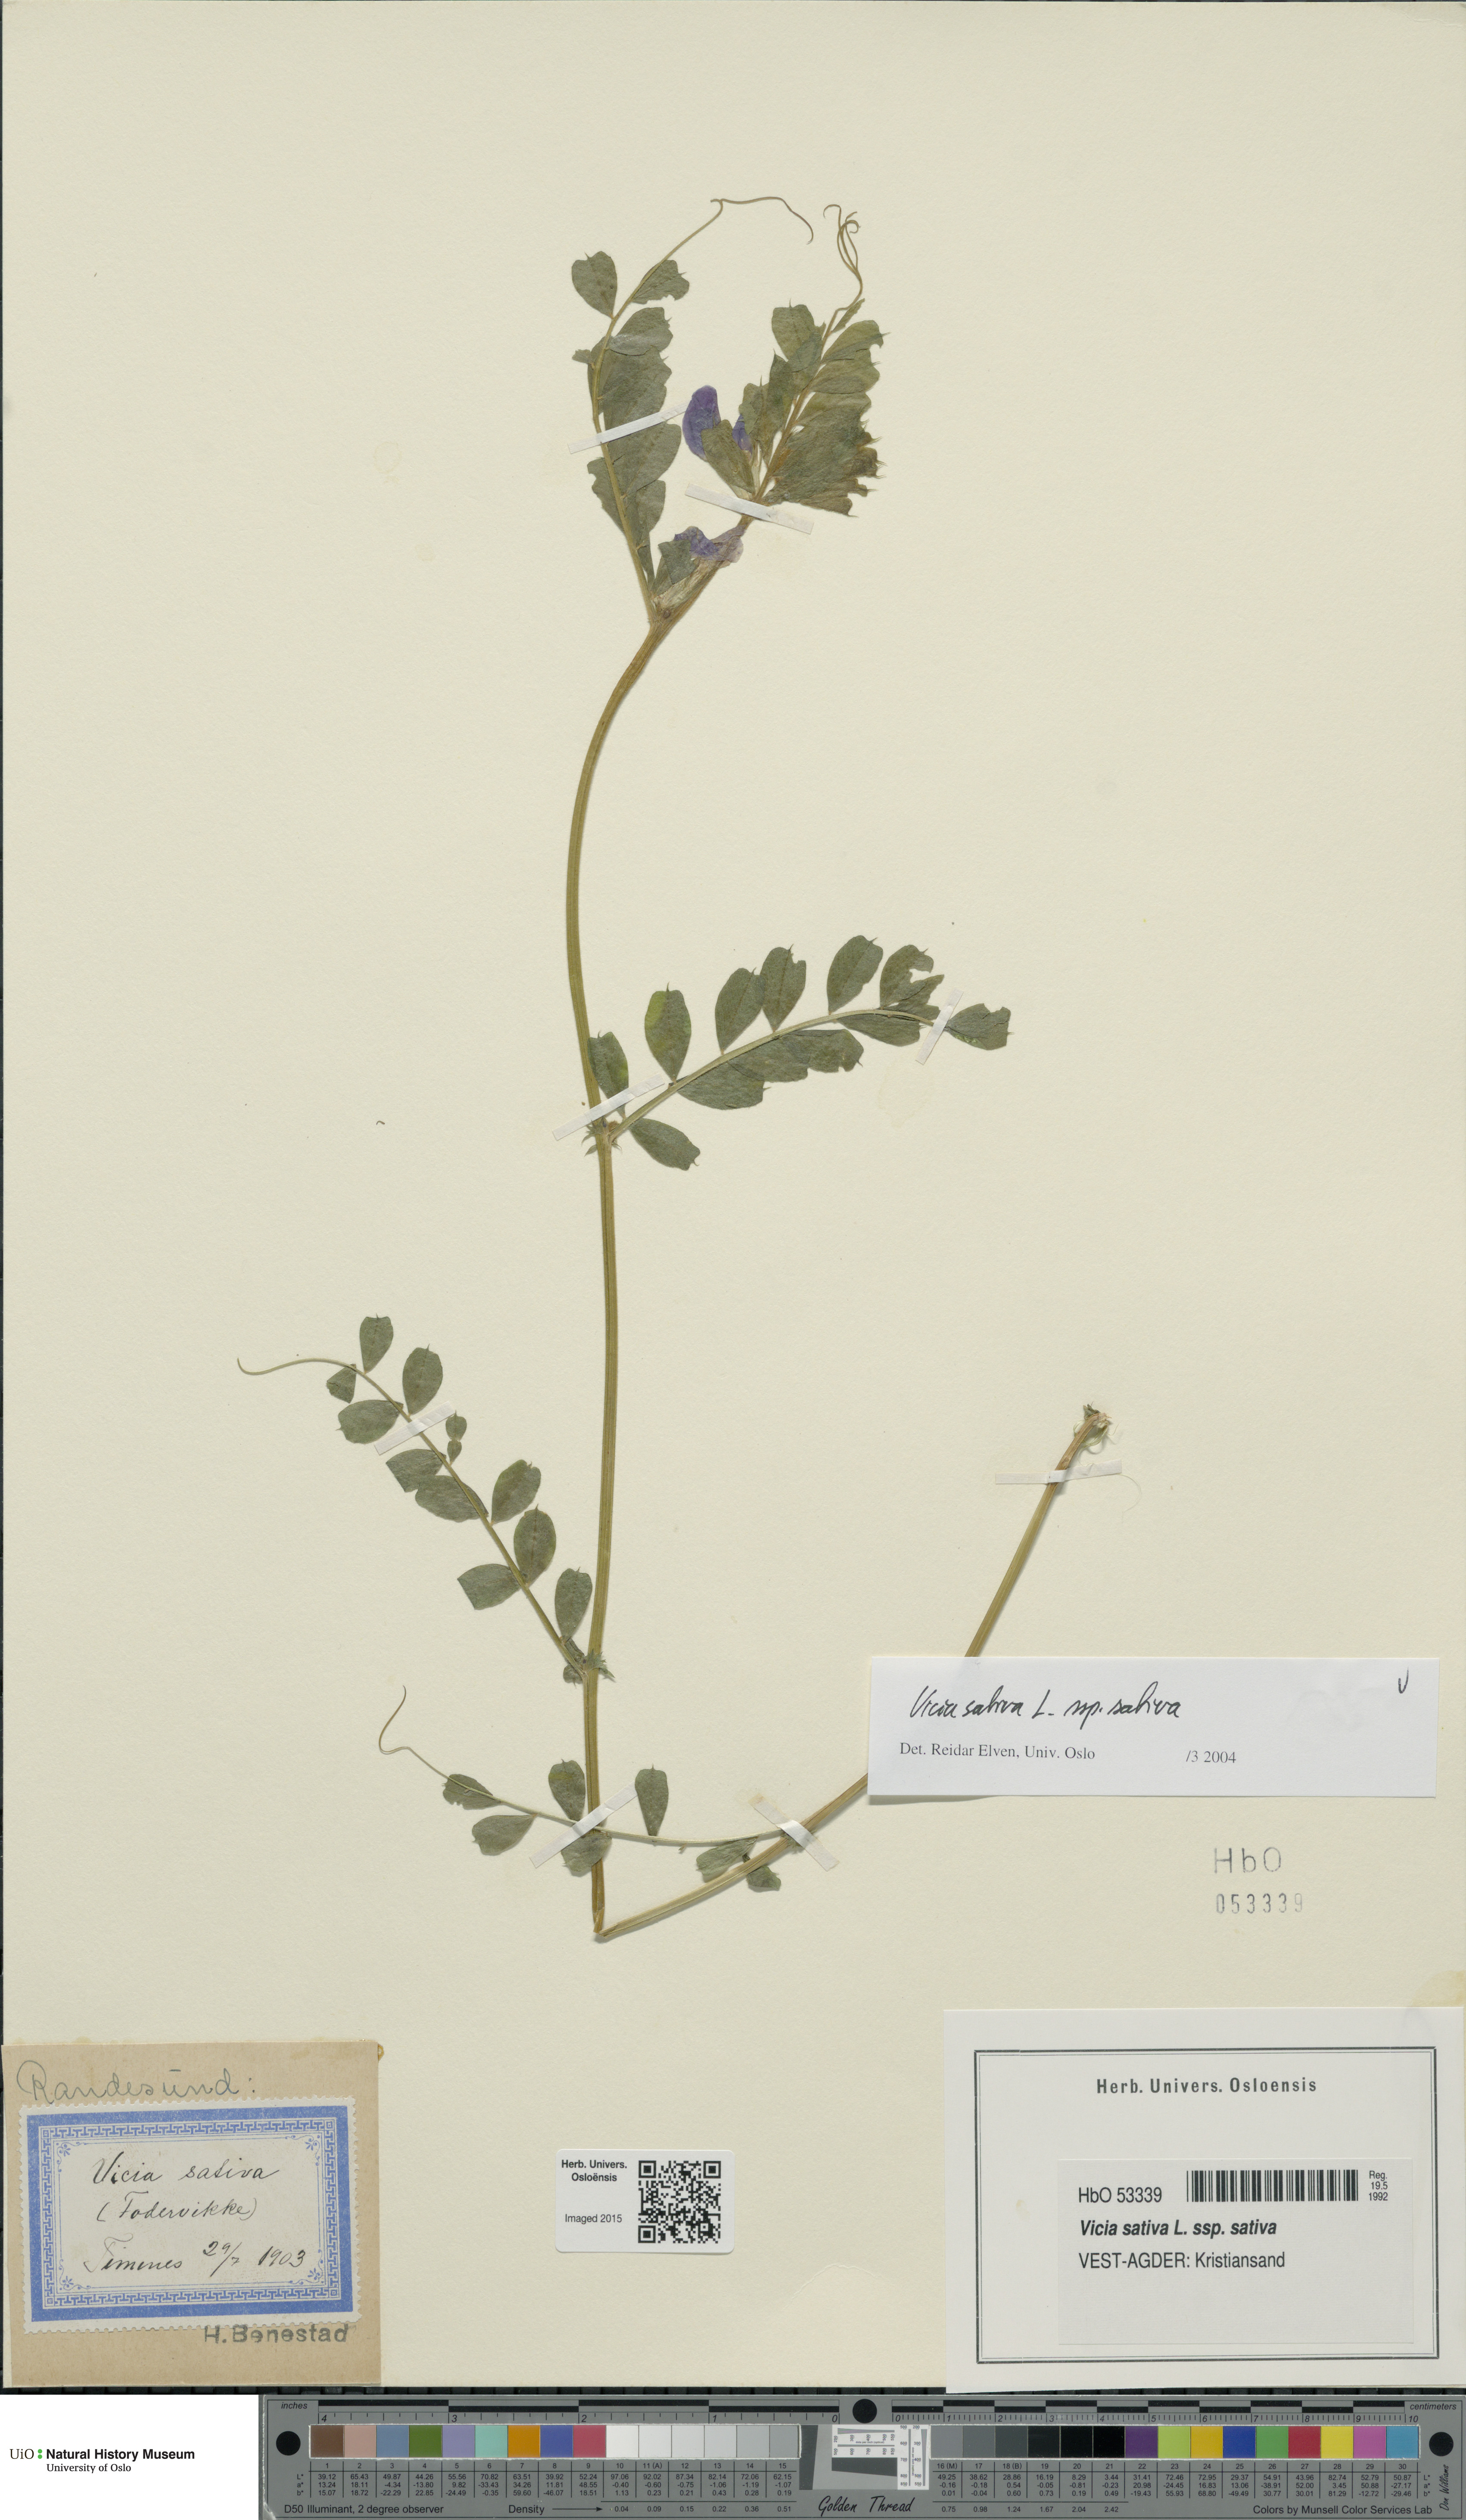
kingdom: Plantae
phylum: Tracheophyta
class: Magnoliopsida
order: Fabales
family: Fabaceae
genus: Vicia
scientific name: Vicia sativa
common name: Garden vetch
